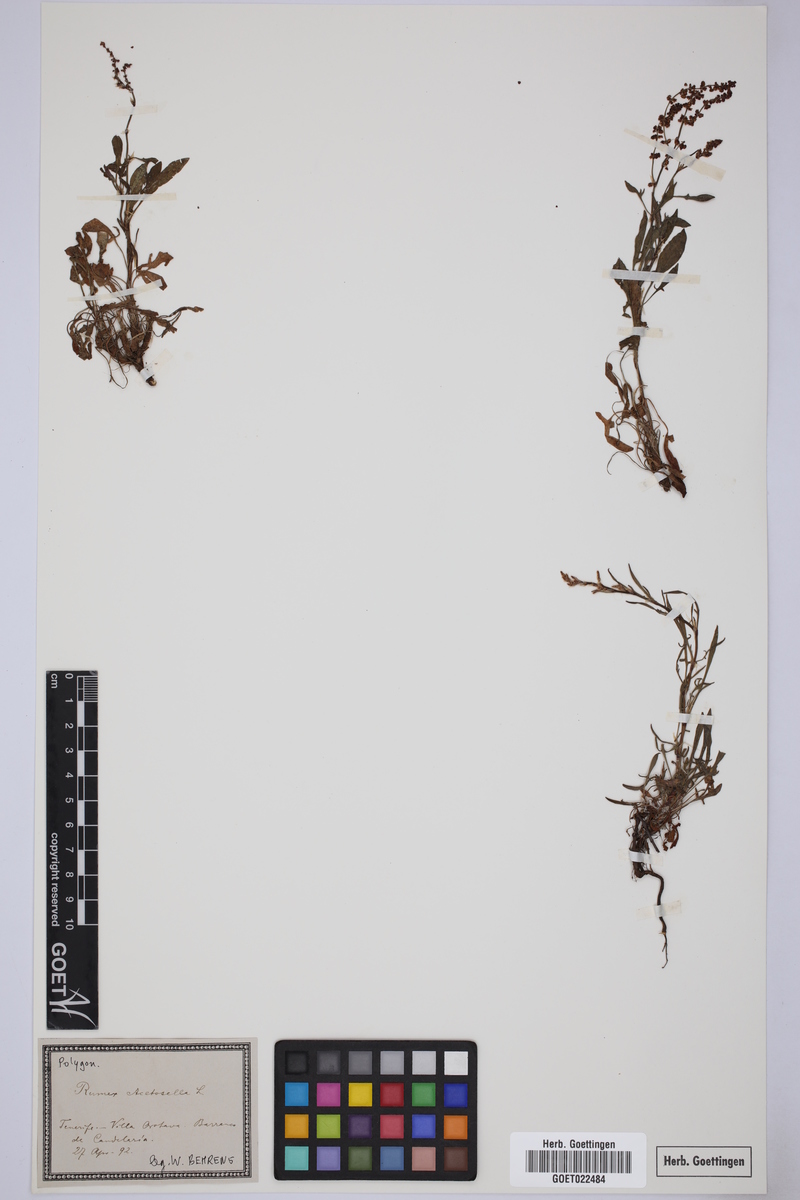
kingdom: Plantae
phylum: Tracheophyta
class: Magnoliopsida
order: Caryophyllales
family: Polygonaceae
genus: Rumex
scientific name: Rumex acetosella
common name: Common sheep sorrel
